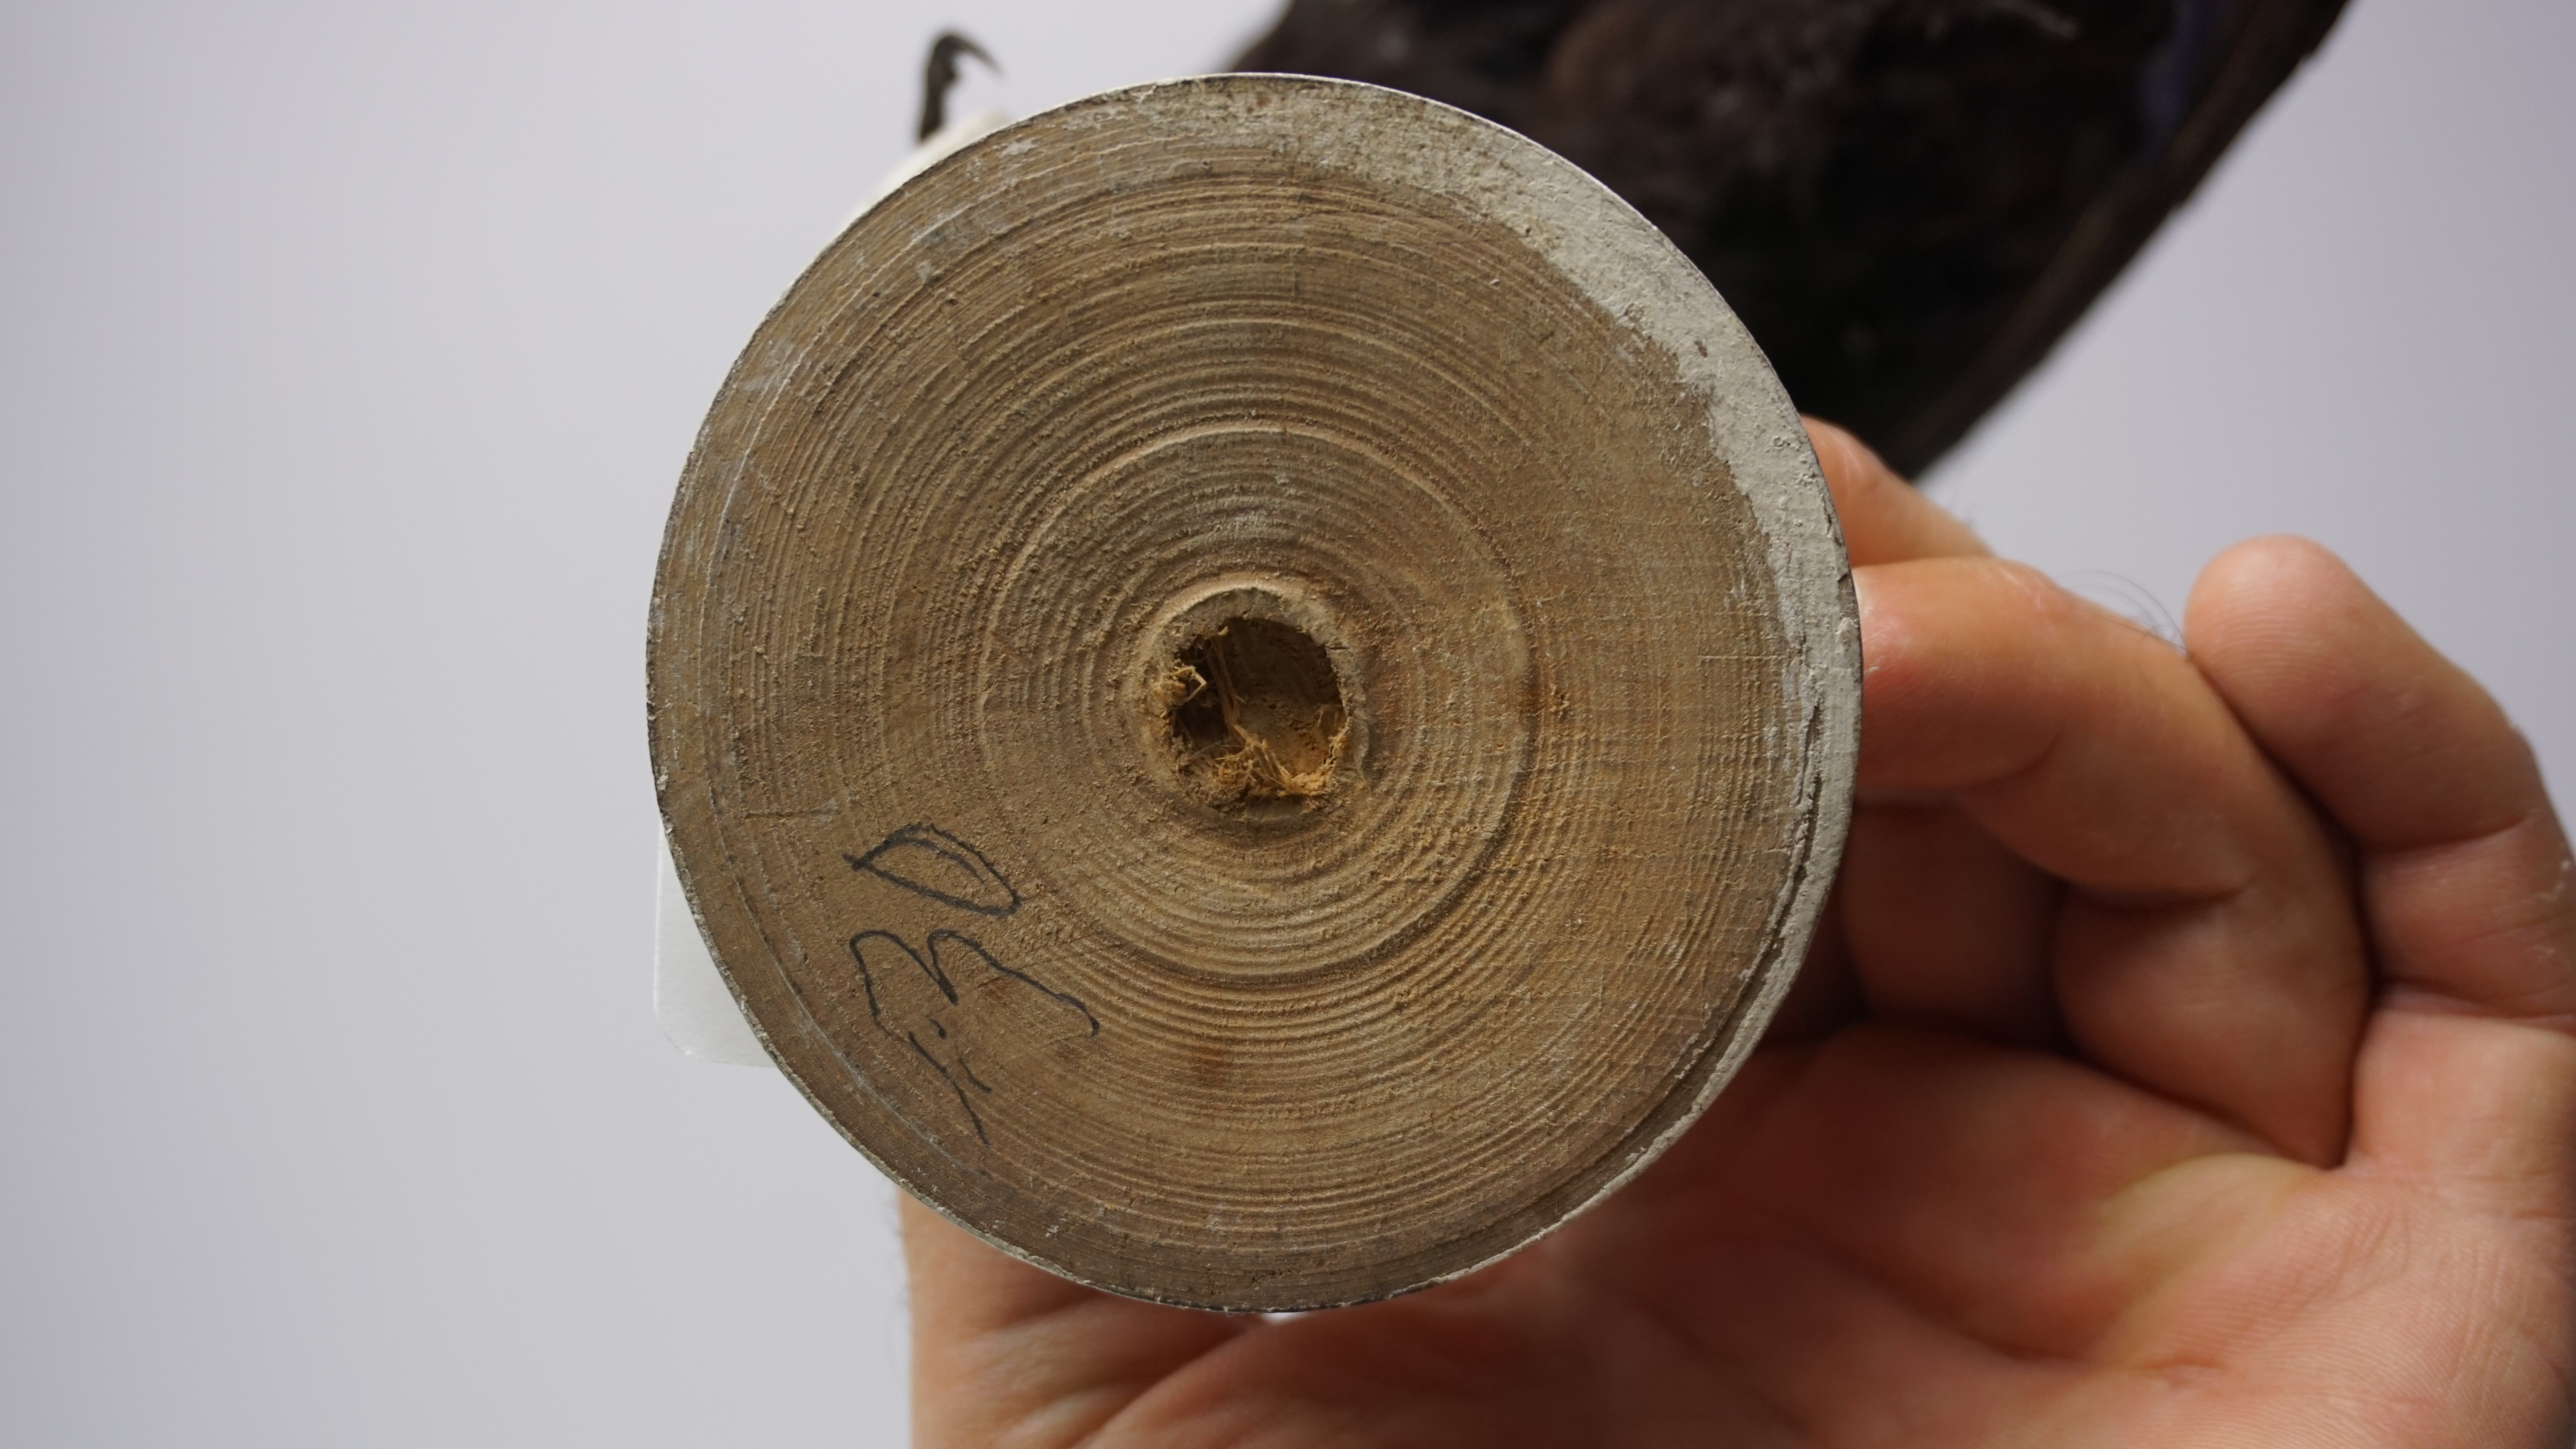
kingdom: Animalia
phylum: Chordata
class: Aves
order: Musophagiformes
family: Musophagidae
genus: Musophaga
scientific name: Musophaga violacea
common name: Violet turaco
